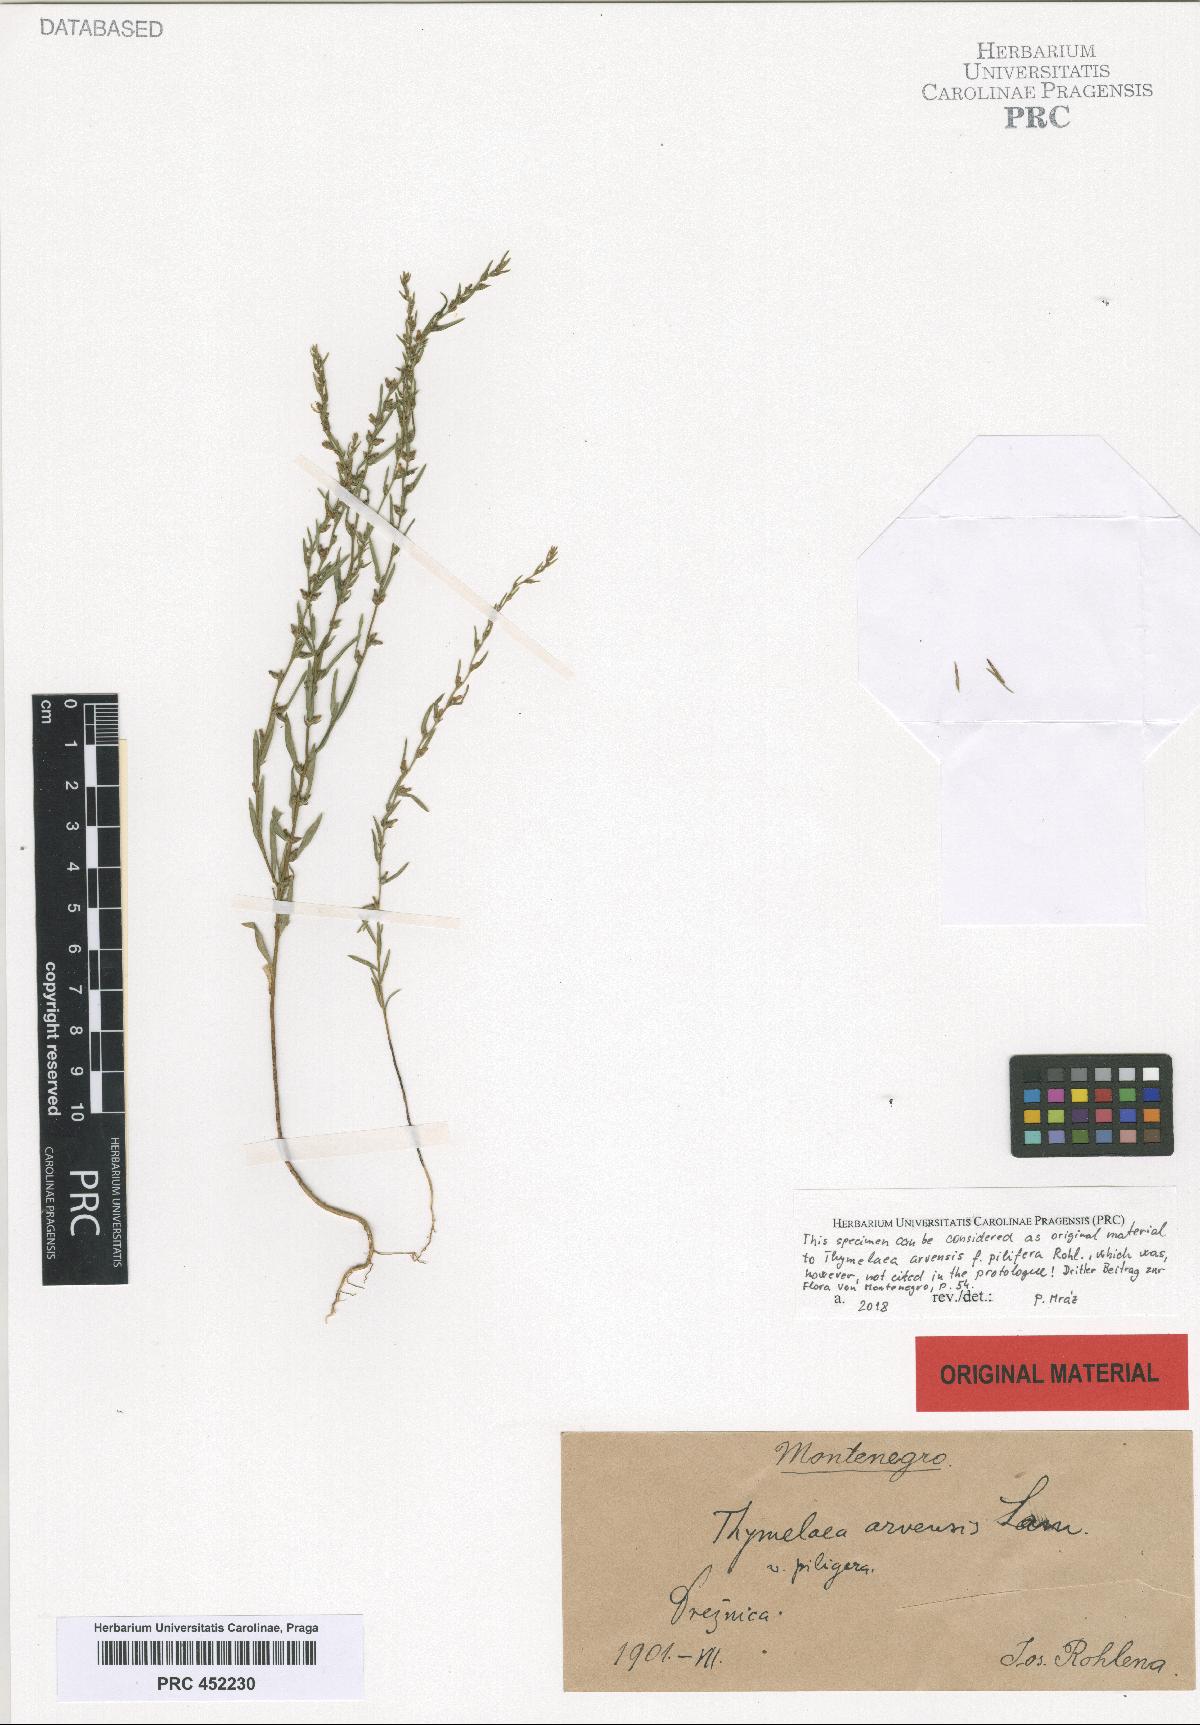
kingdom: Plantae
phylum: Tracheophyta
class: Magnoliopsida
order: Malvales
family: Thymelaeaceae
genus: Thymelaea
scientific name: Thymelaea gussonei
